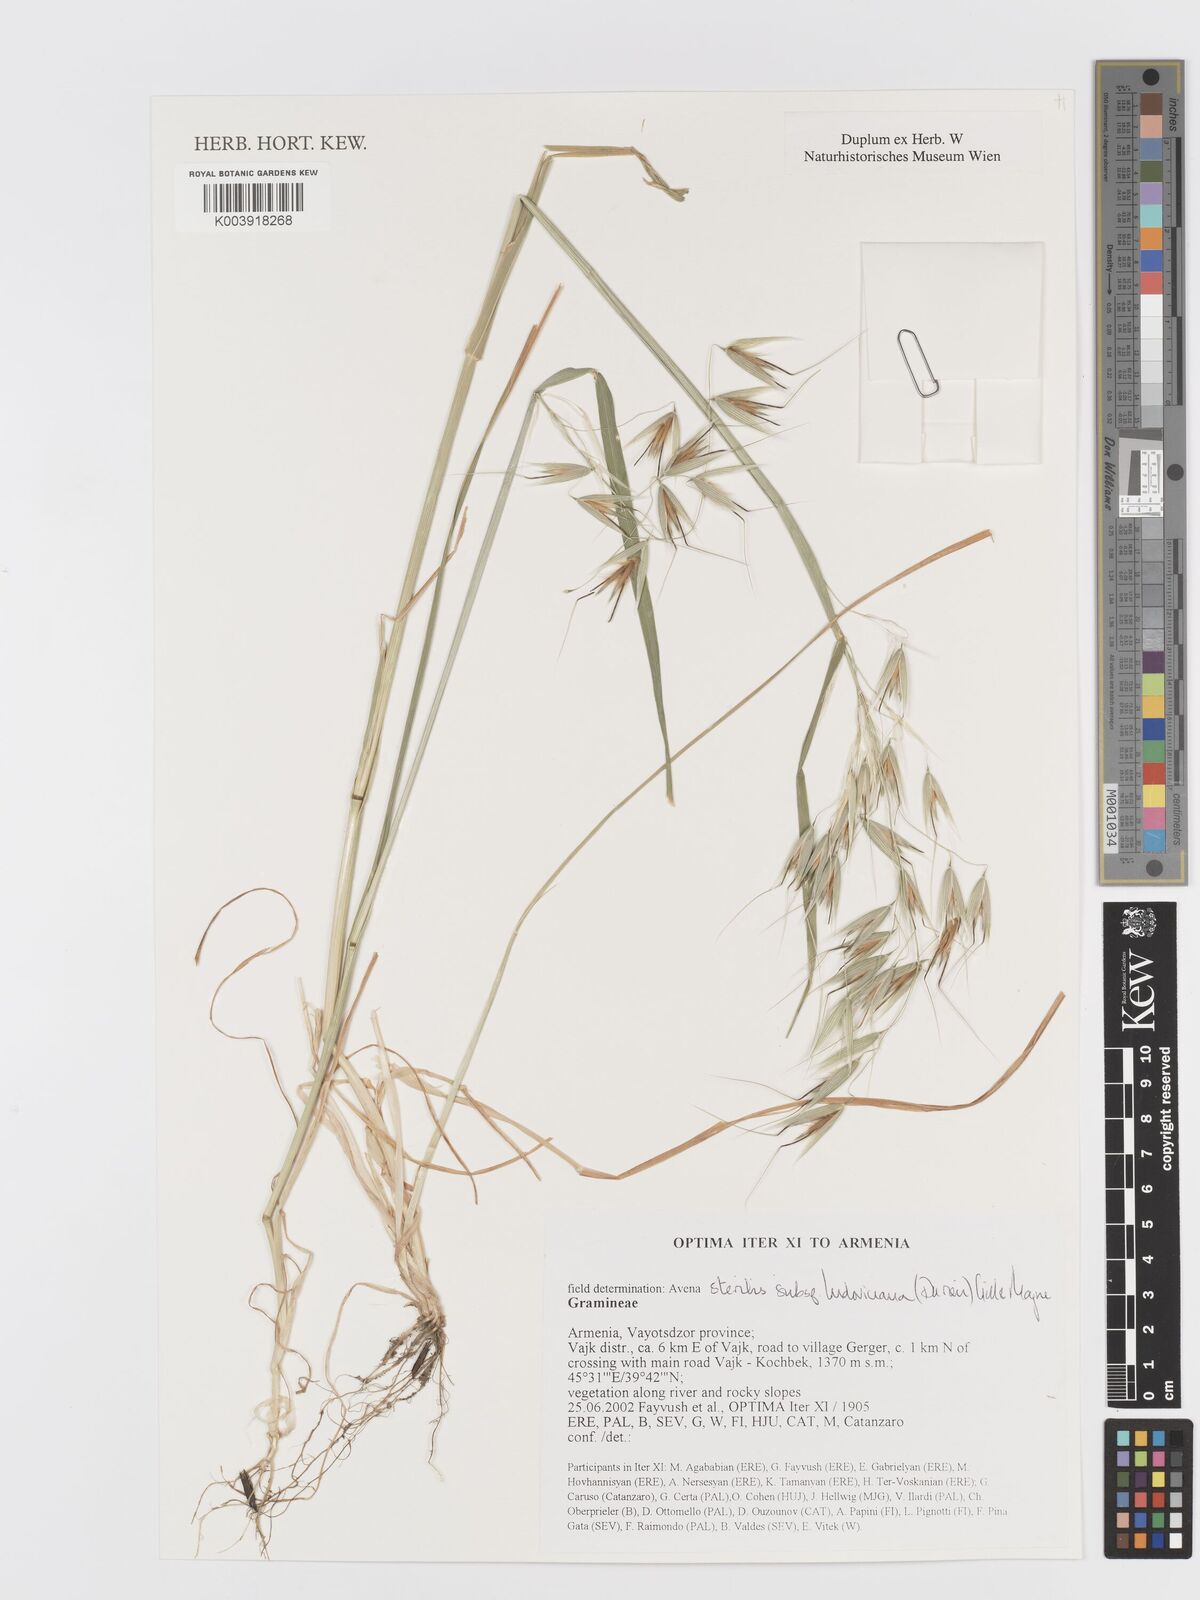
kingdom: Plantae
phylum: Tracheophyta
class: Liliopsida
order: Poales
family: Poaceae
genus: Avena
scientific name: Avena sterilis
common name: Animated oat
